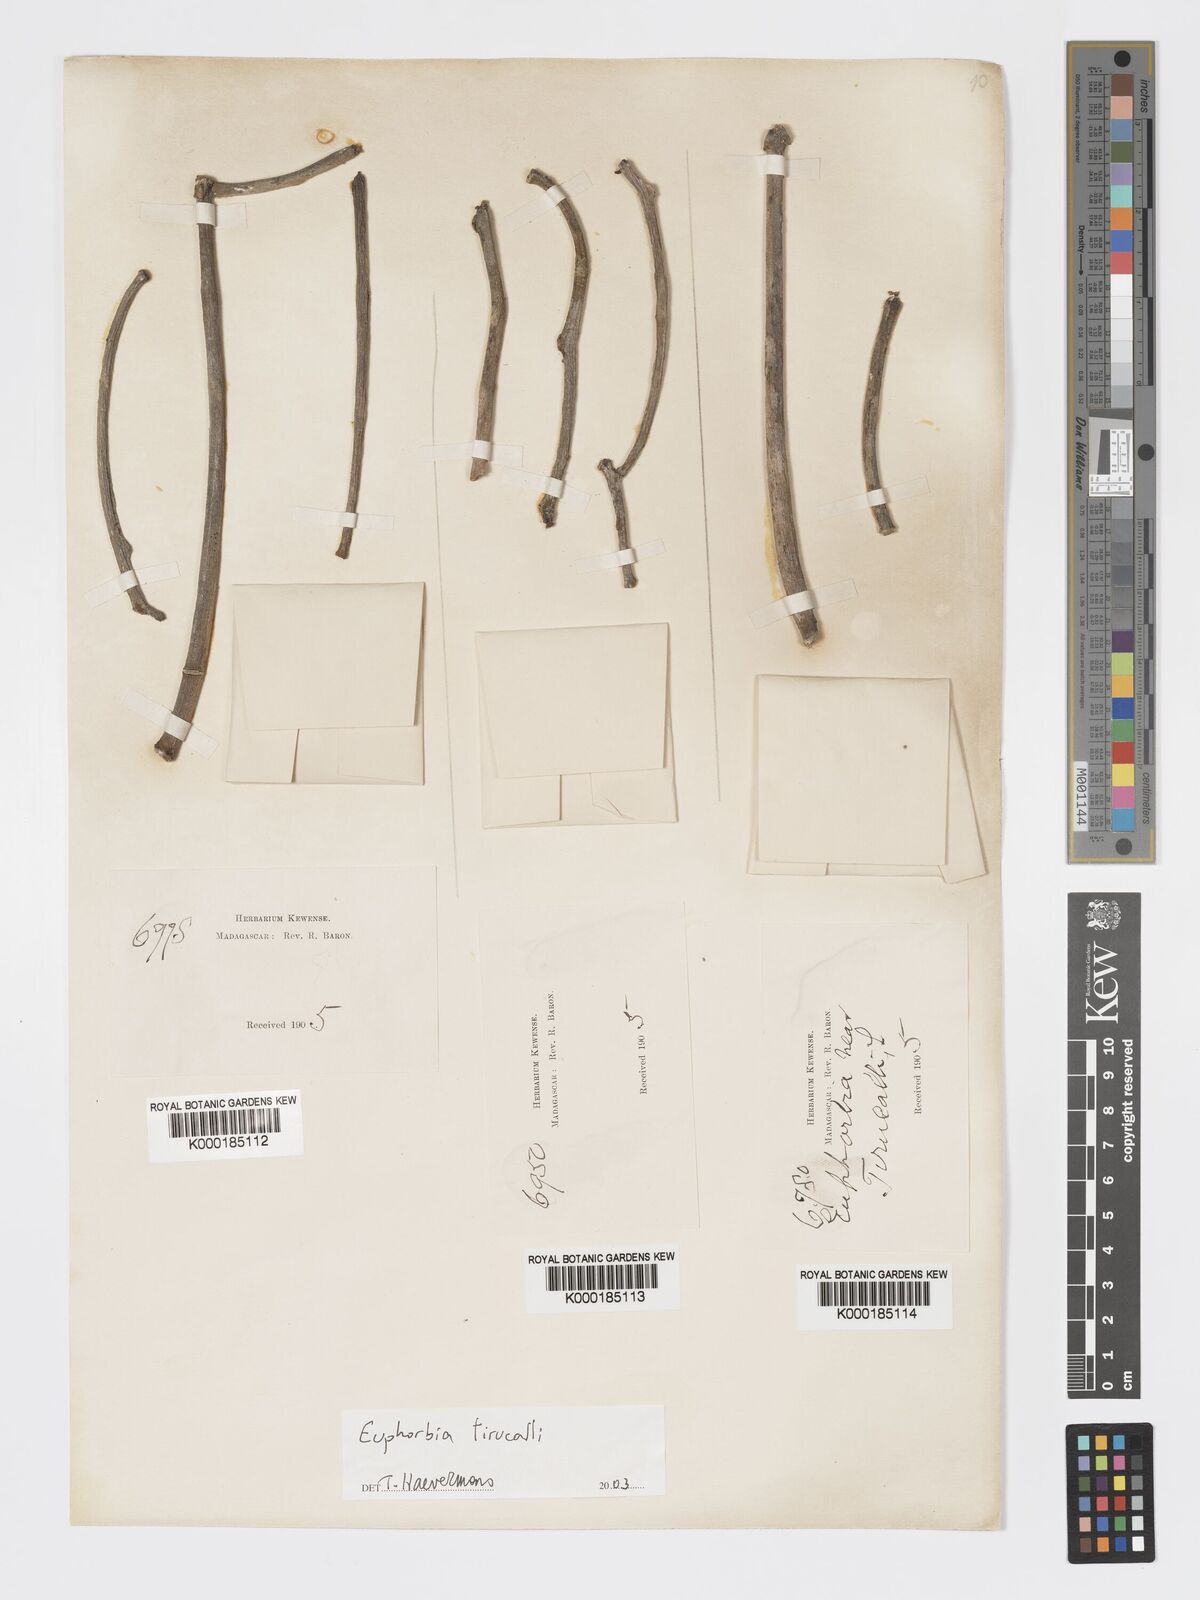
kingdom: Plantae
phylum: Tracheophyta
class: Magnoliopsida
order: Malpighiales
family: Euphorbiaceae
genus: Euphorbia
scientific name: Euphorbia tirucalli
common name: Indiantree spurge
